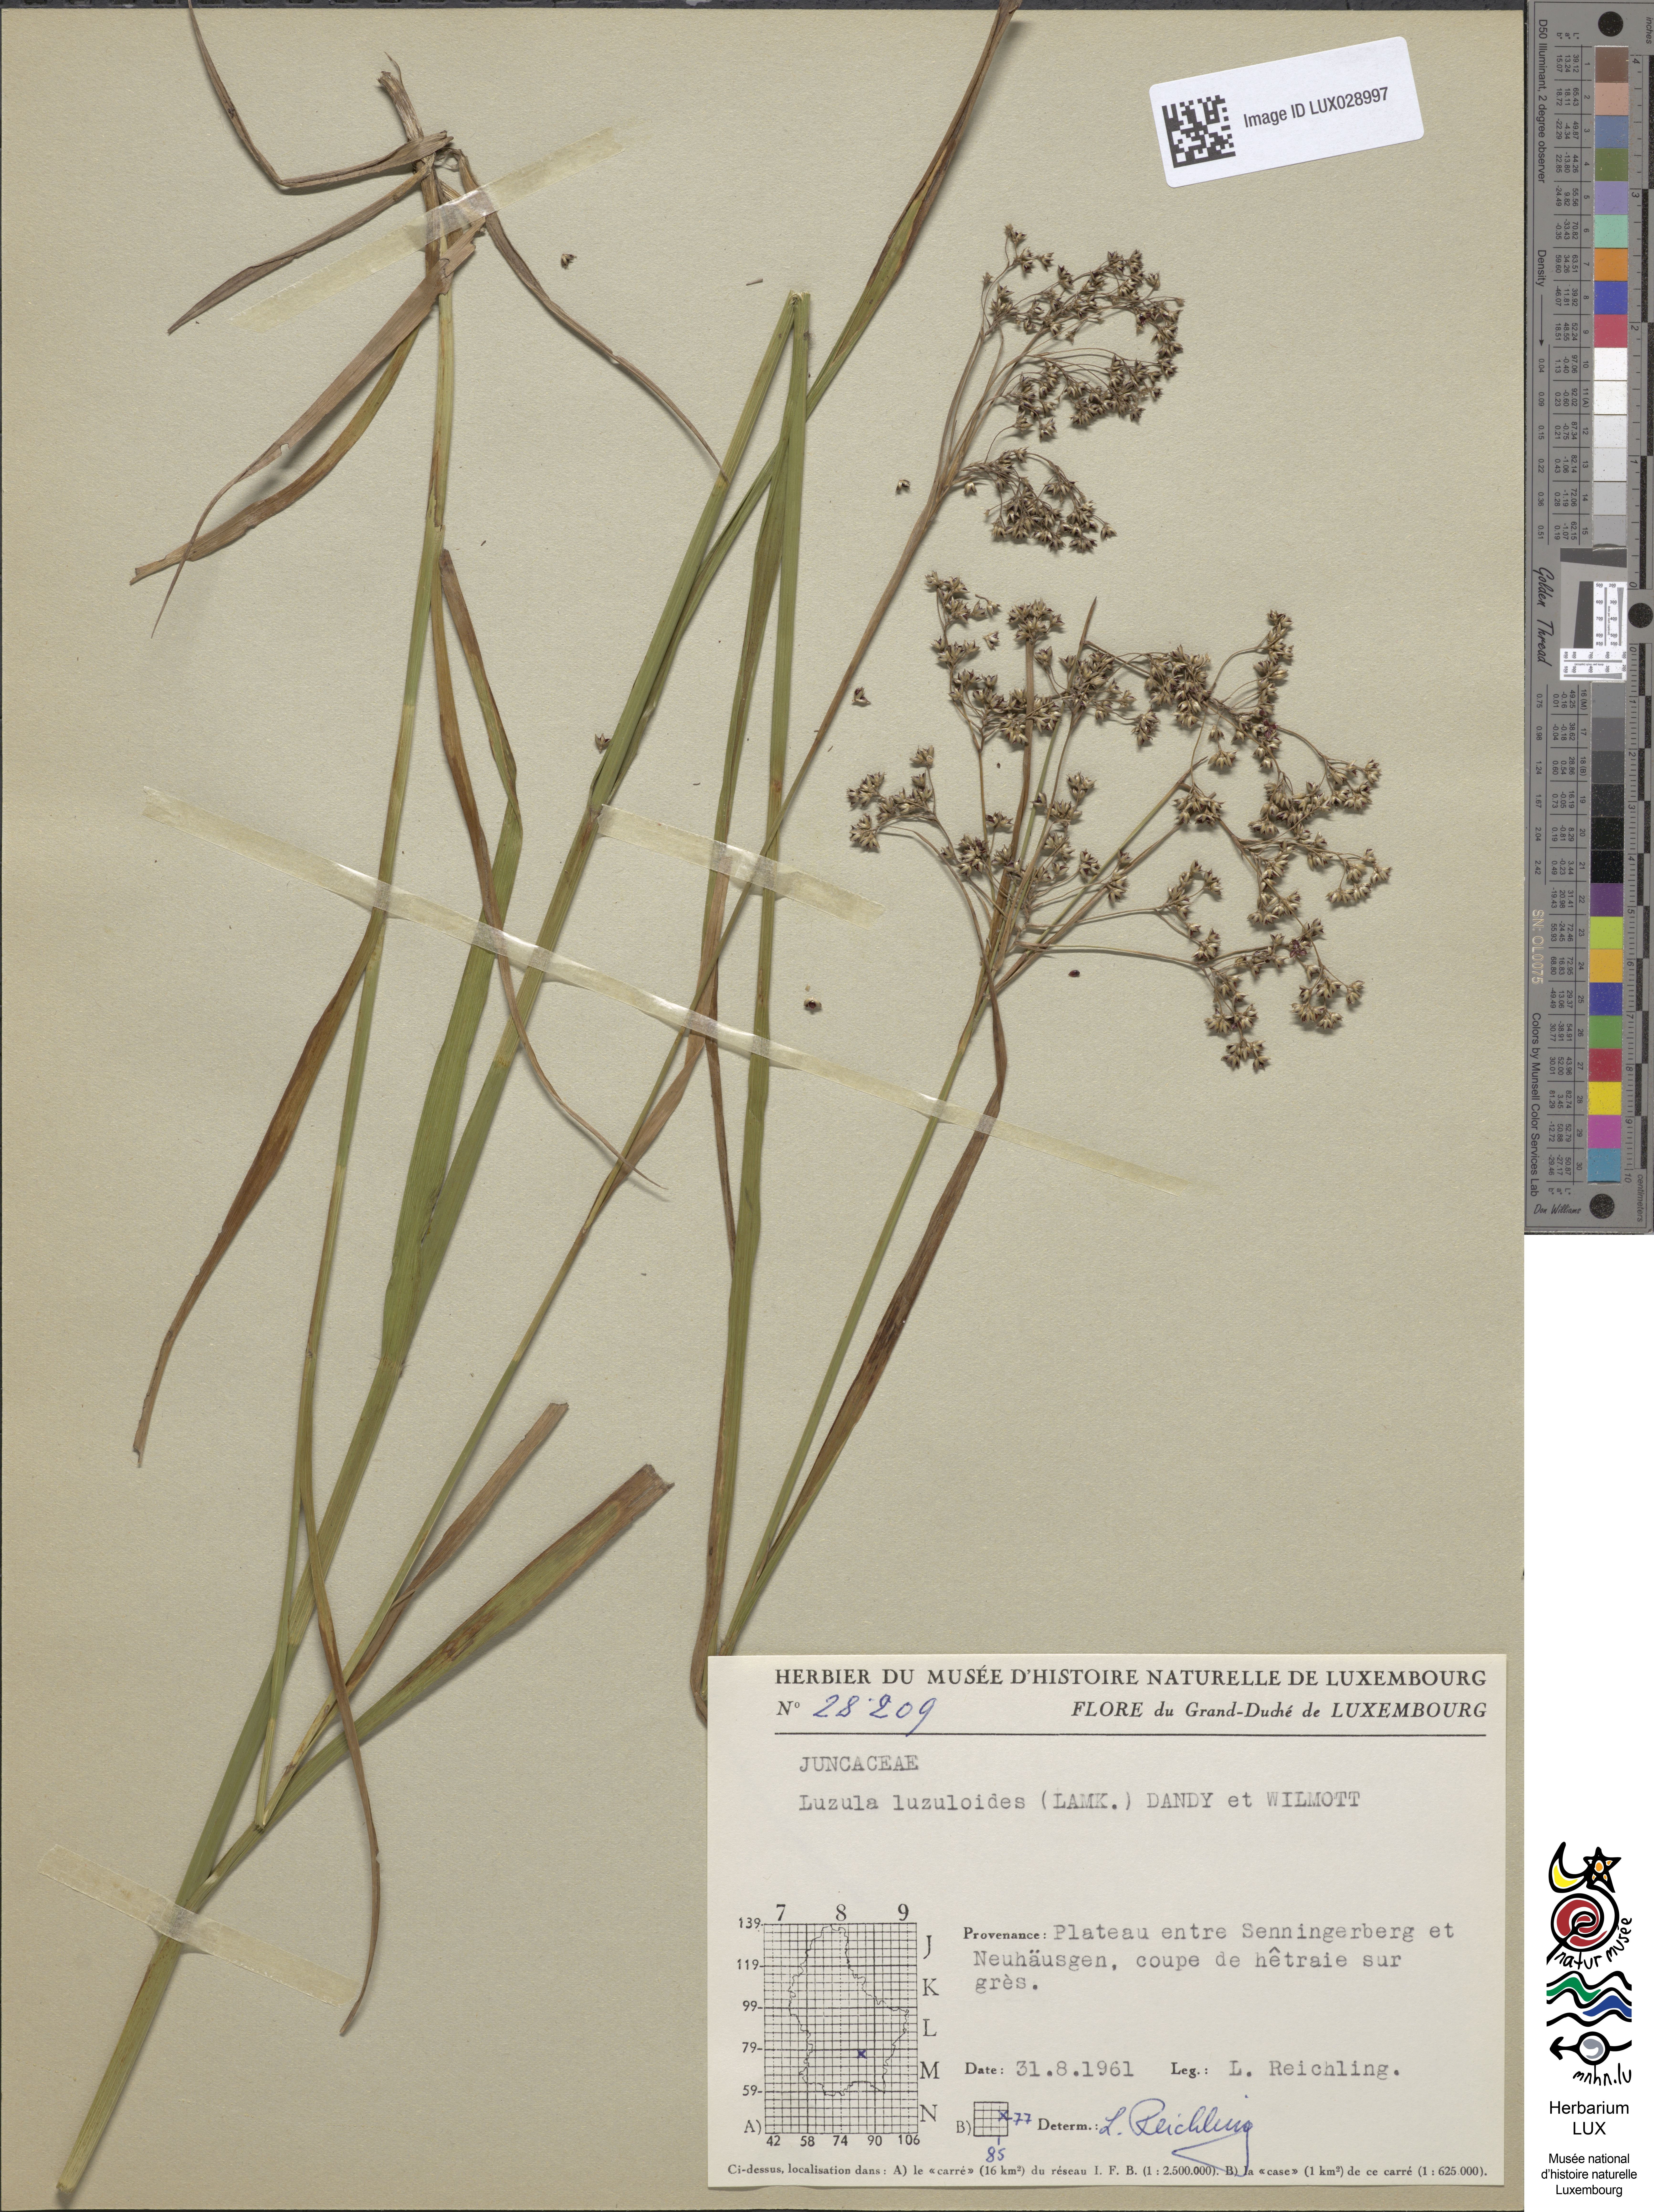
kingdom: Plantae
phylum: Tracheophyta
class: Liliopsida
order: Poales
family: Juncaceae
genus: Luzula
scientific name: Luzula luzuloides
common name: White wood-rush
